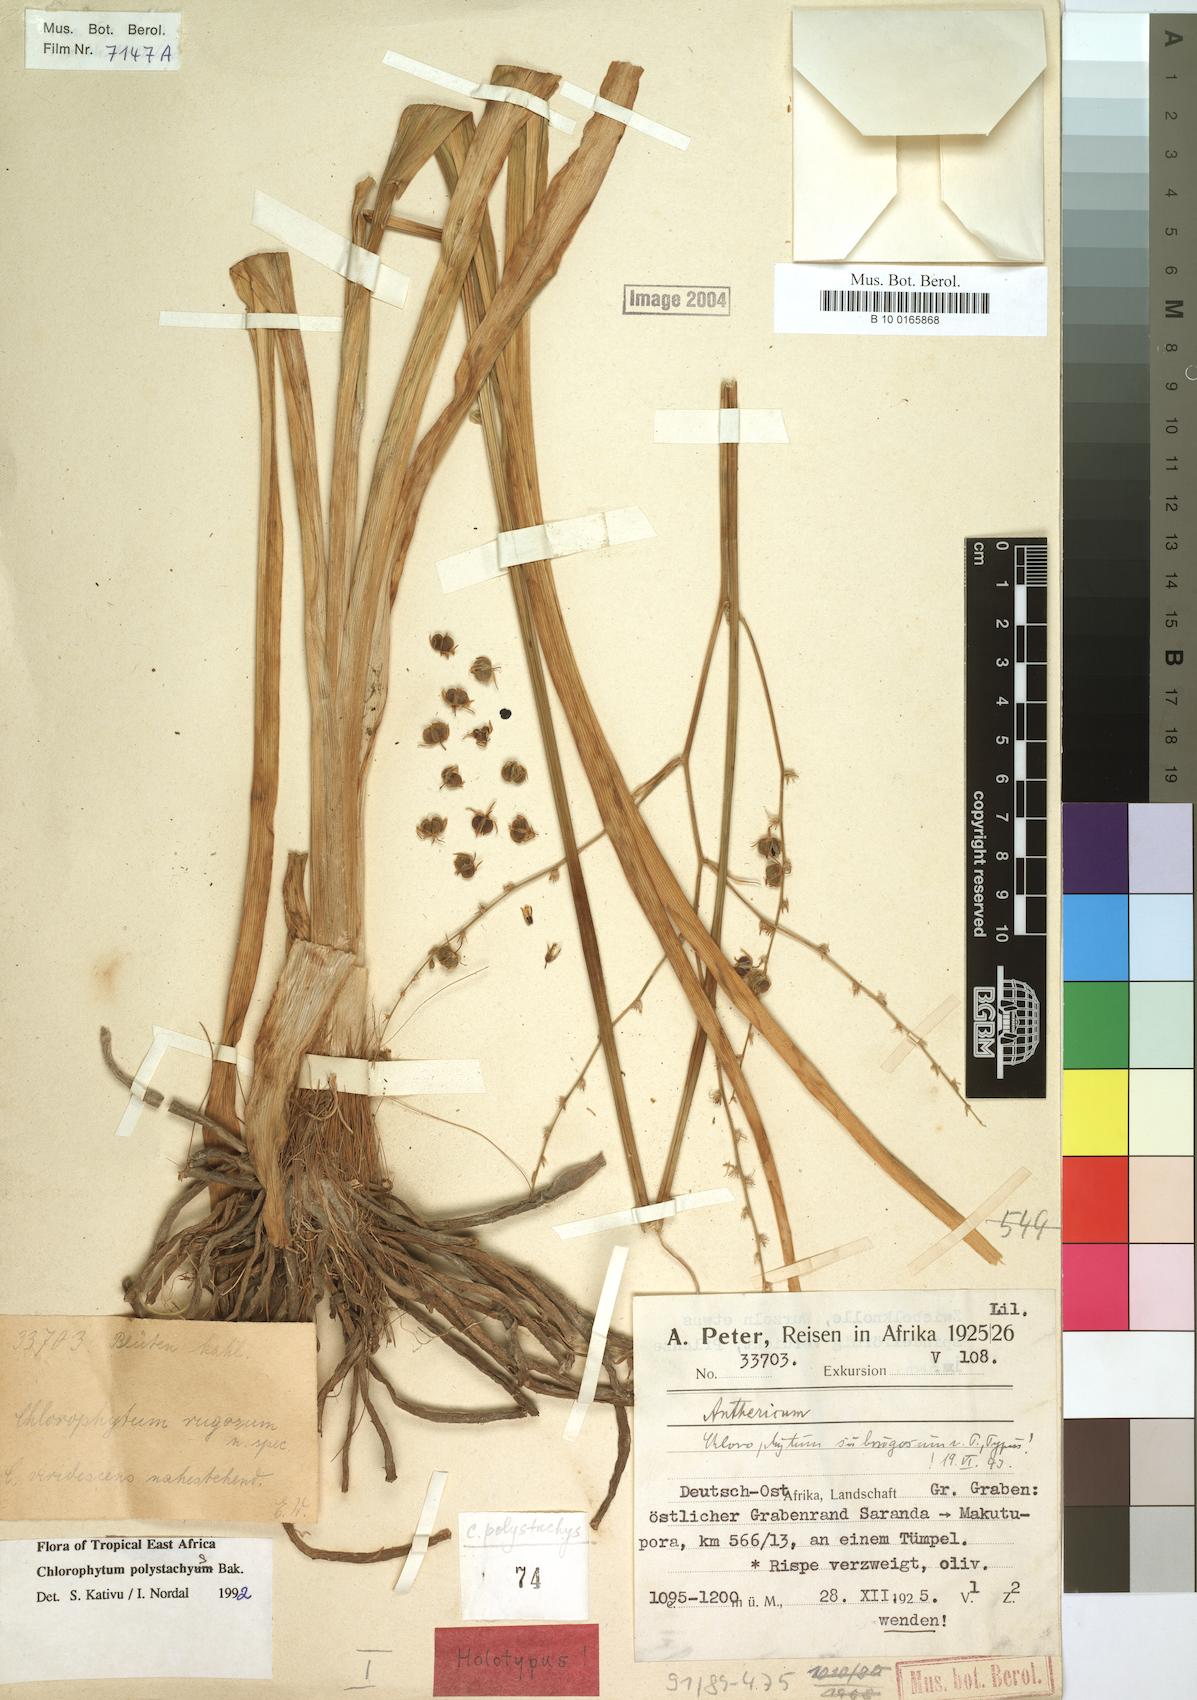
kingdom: Plantae
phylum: Tracheophyta
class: Liliopsida
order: Asparagales
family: Asparagaceae
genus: Chlorophytum
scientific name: Chlorophytum polystachys
